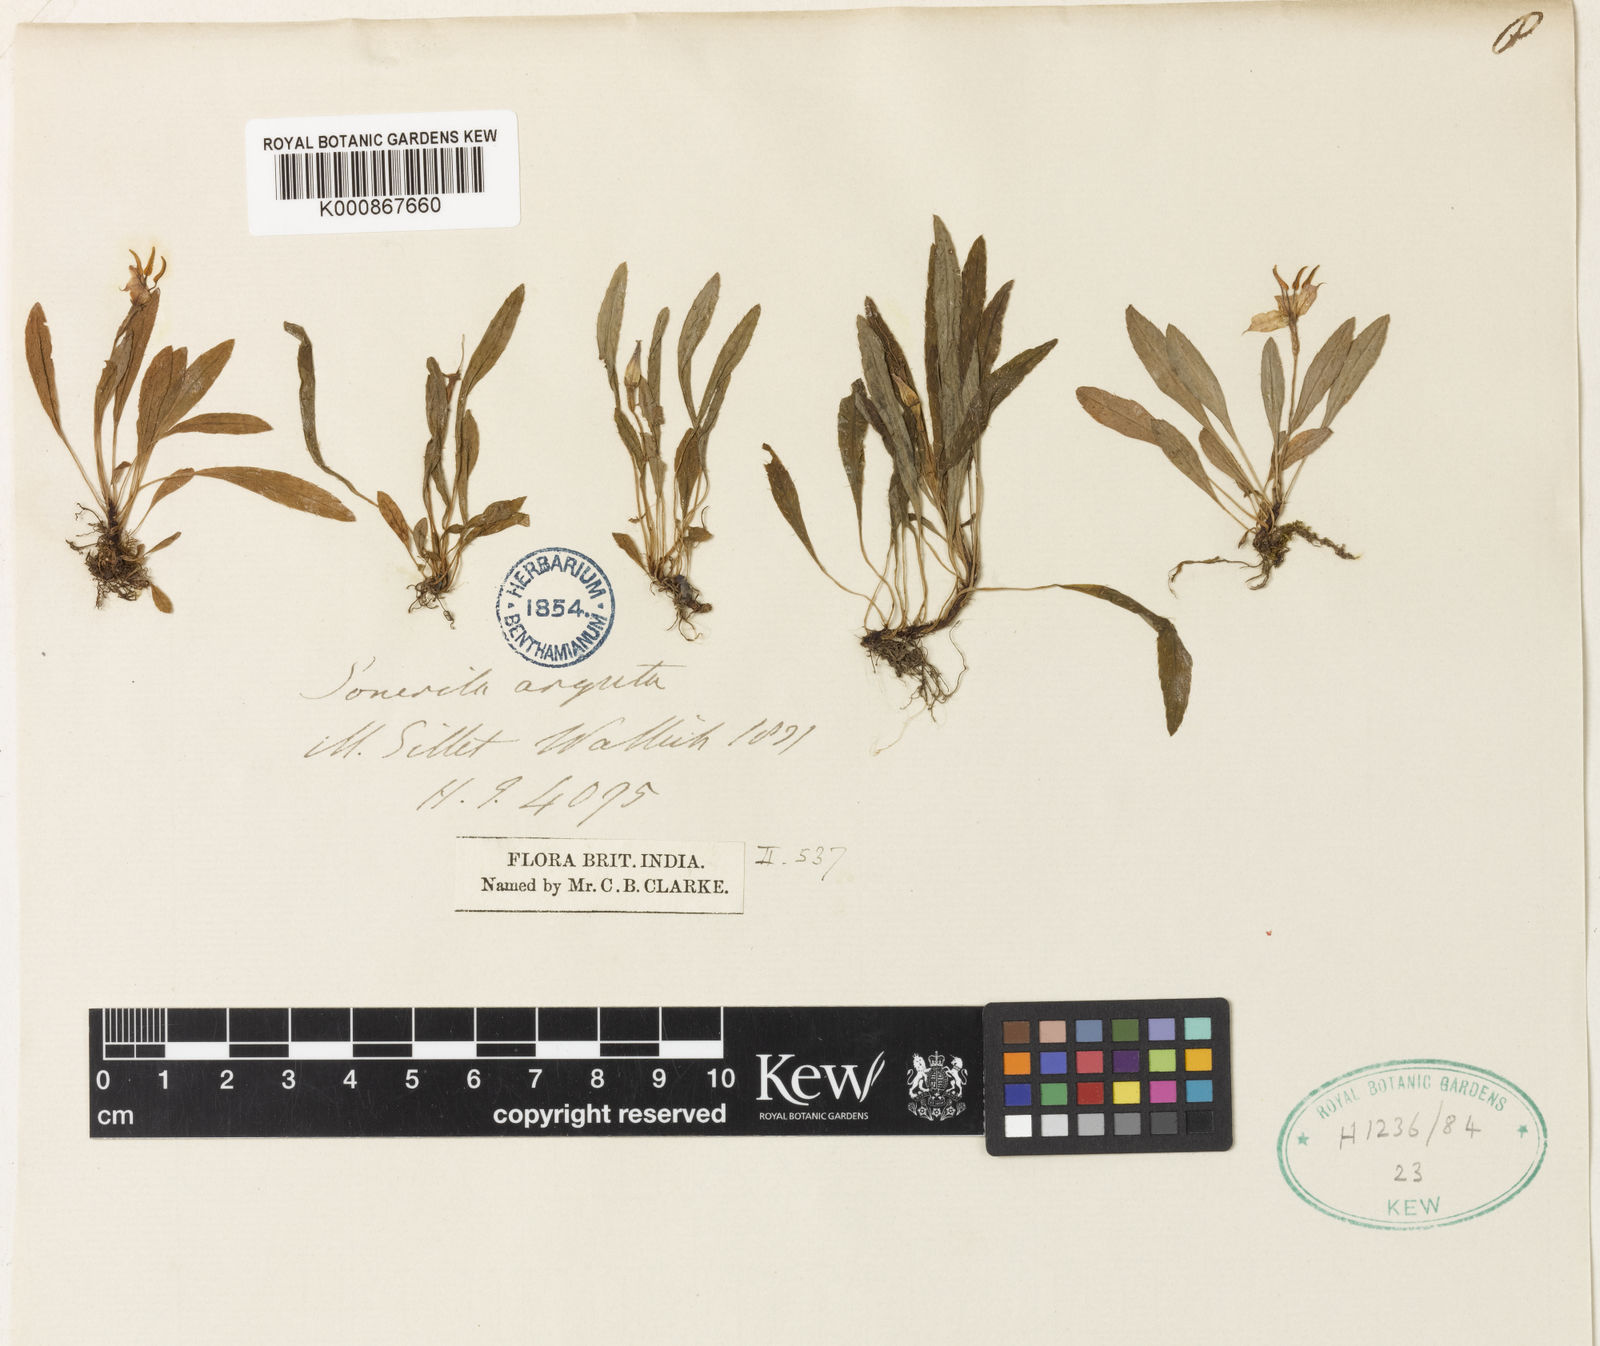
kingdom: Plantae
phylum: Tracheophyta
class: Magnoliopsida
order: Myrtales
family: Melastomataceae
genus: Sonerila
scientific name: Sonerila arguta
